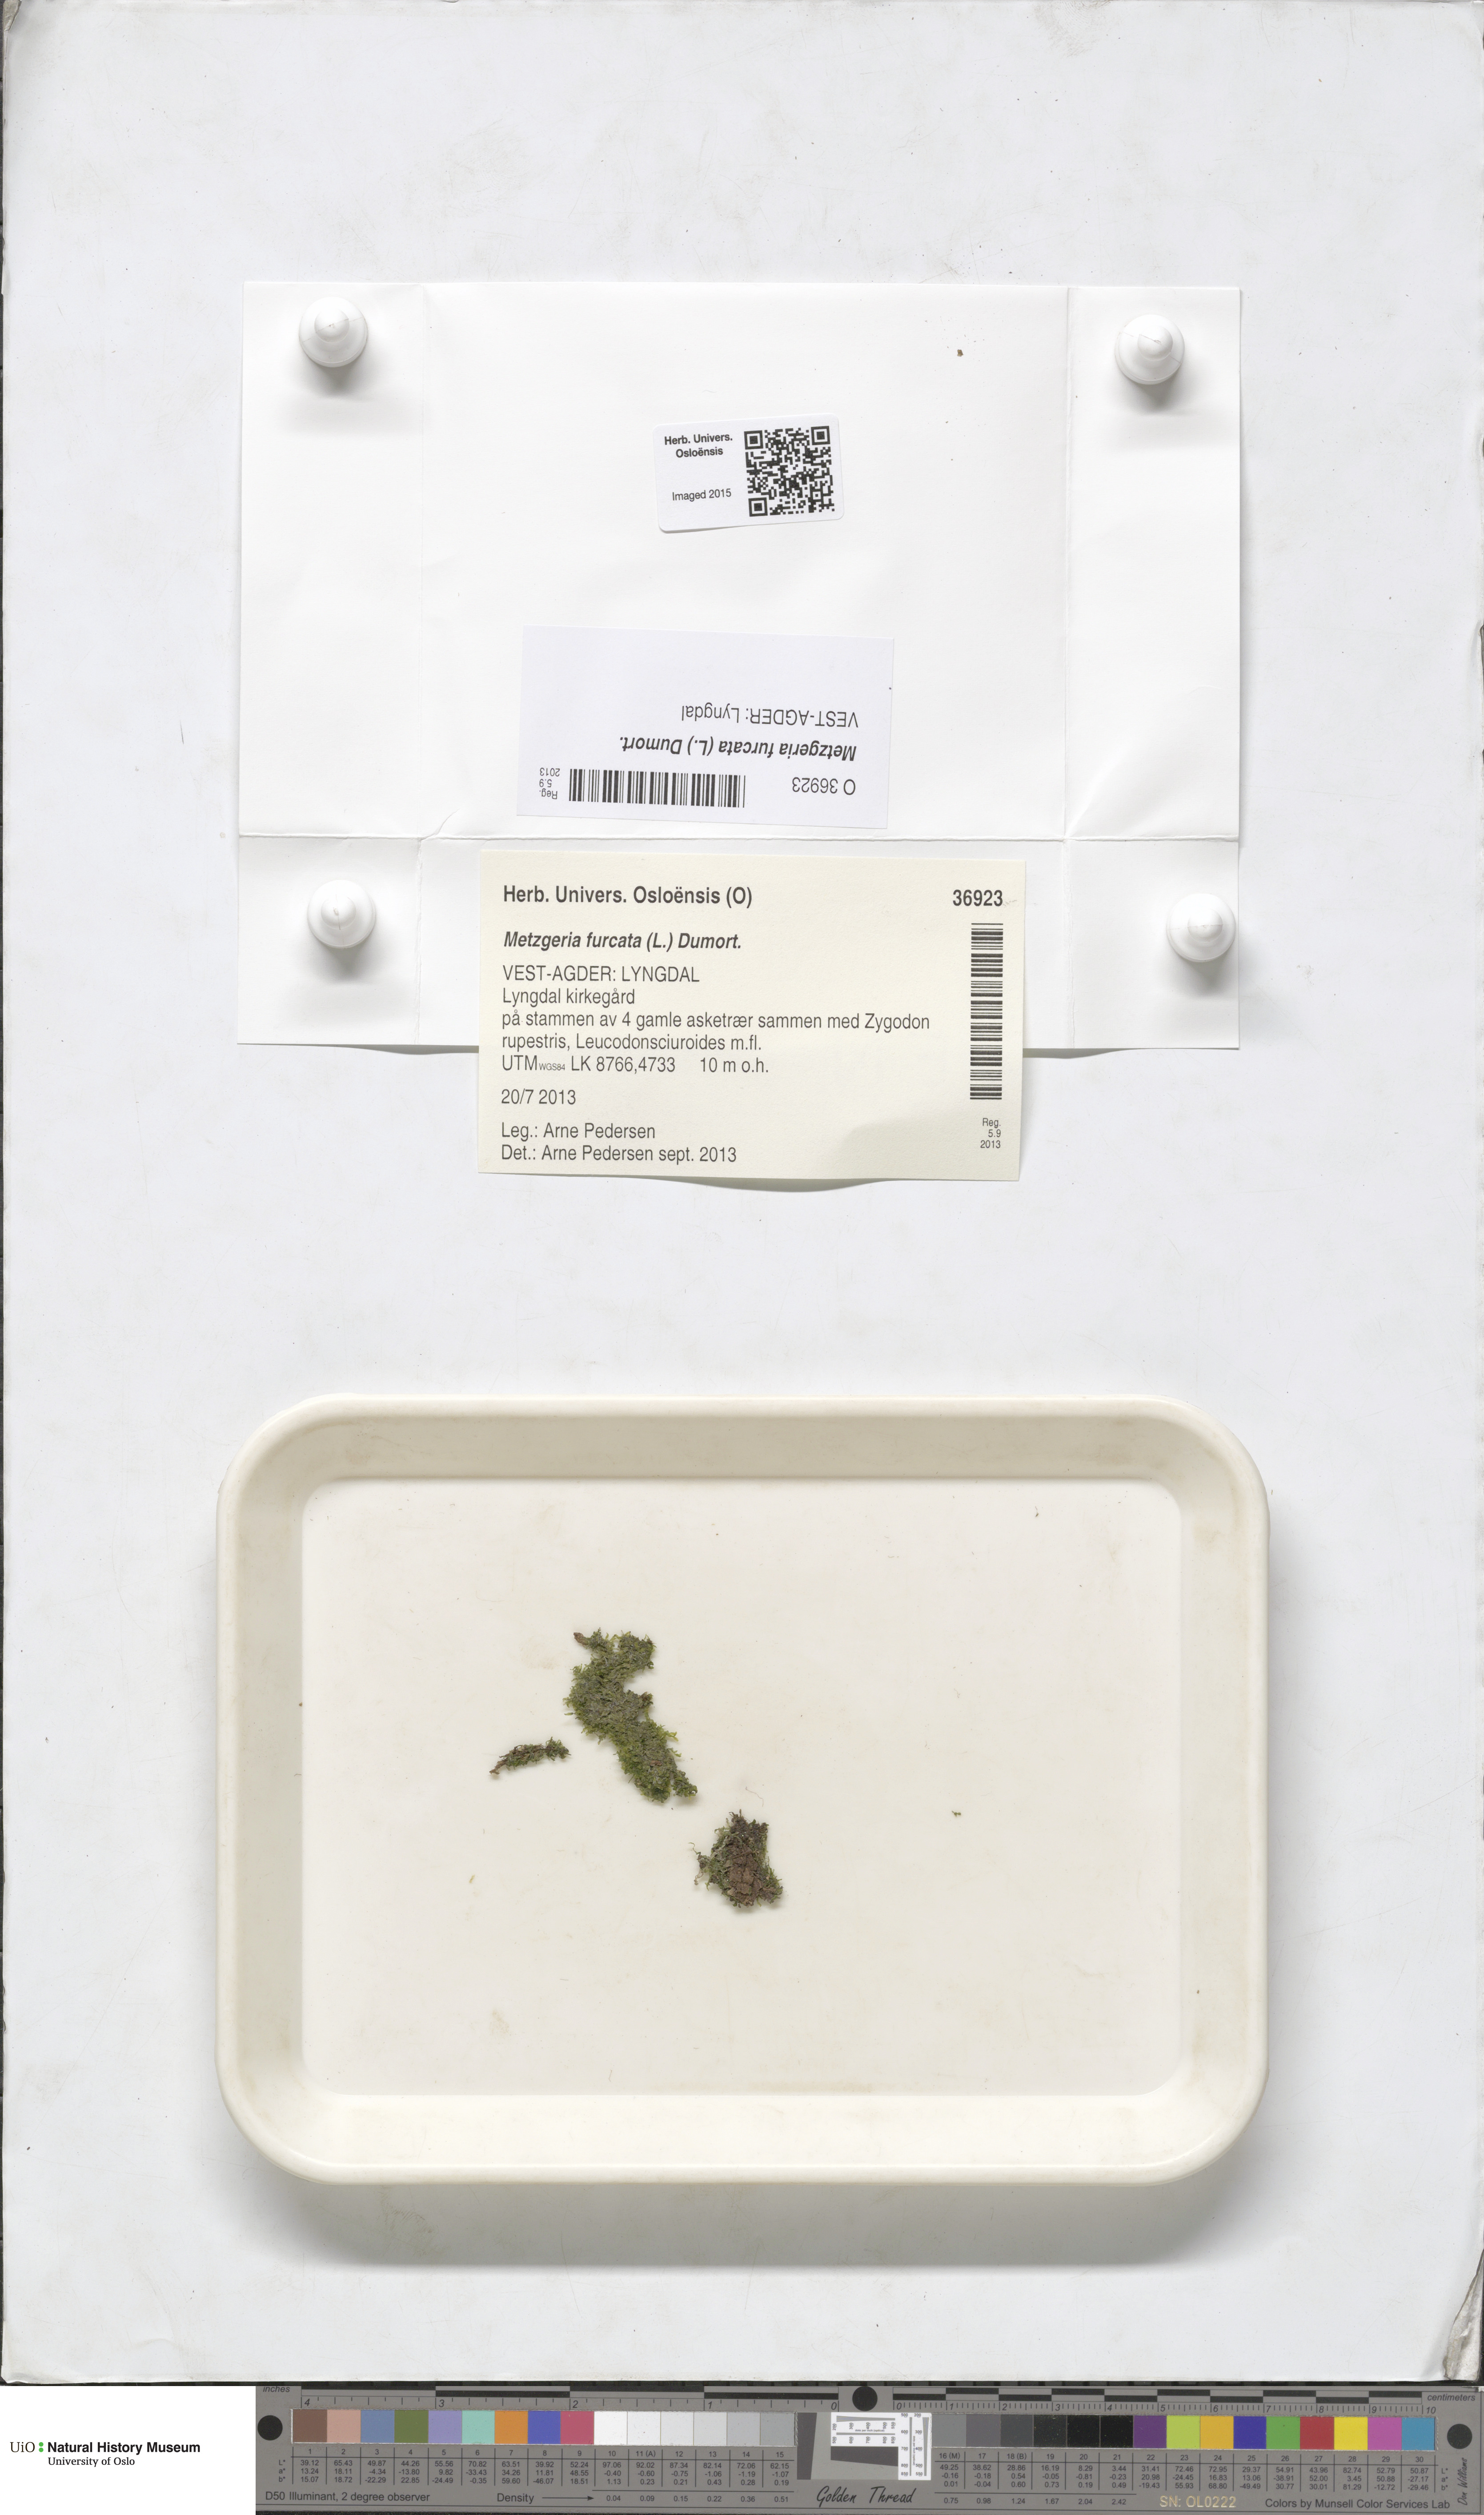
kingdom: Plantae
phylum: Marchantiophyta
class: Jungermanniopsida
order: Metzgeriales
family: Metzgeriaceae
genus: Metzgeria
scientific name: Metzgeria furcata
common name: Forked veilwort
